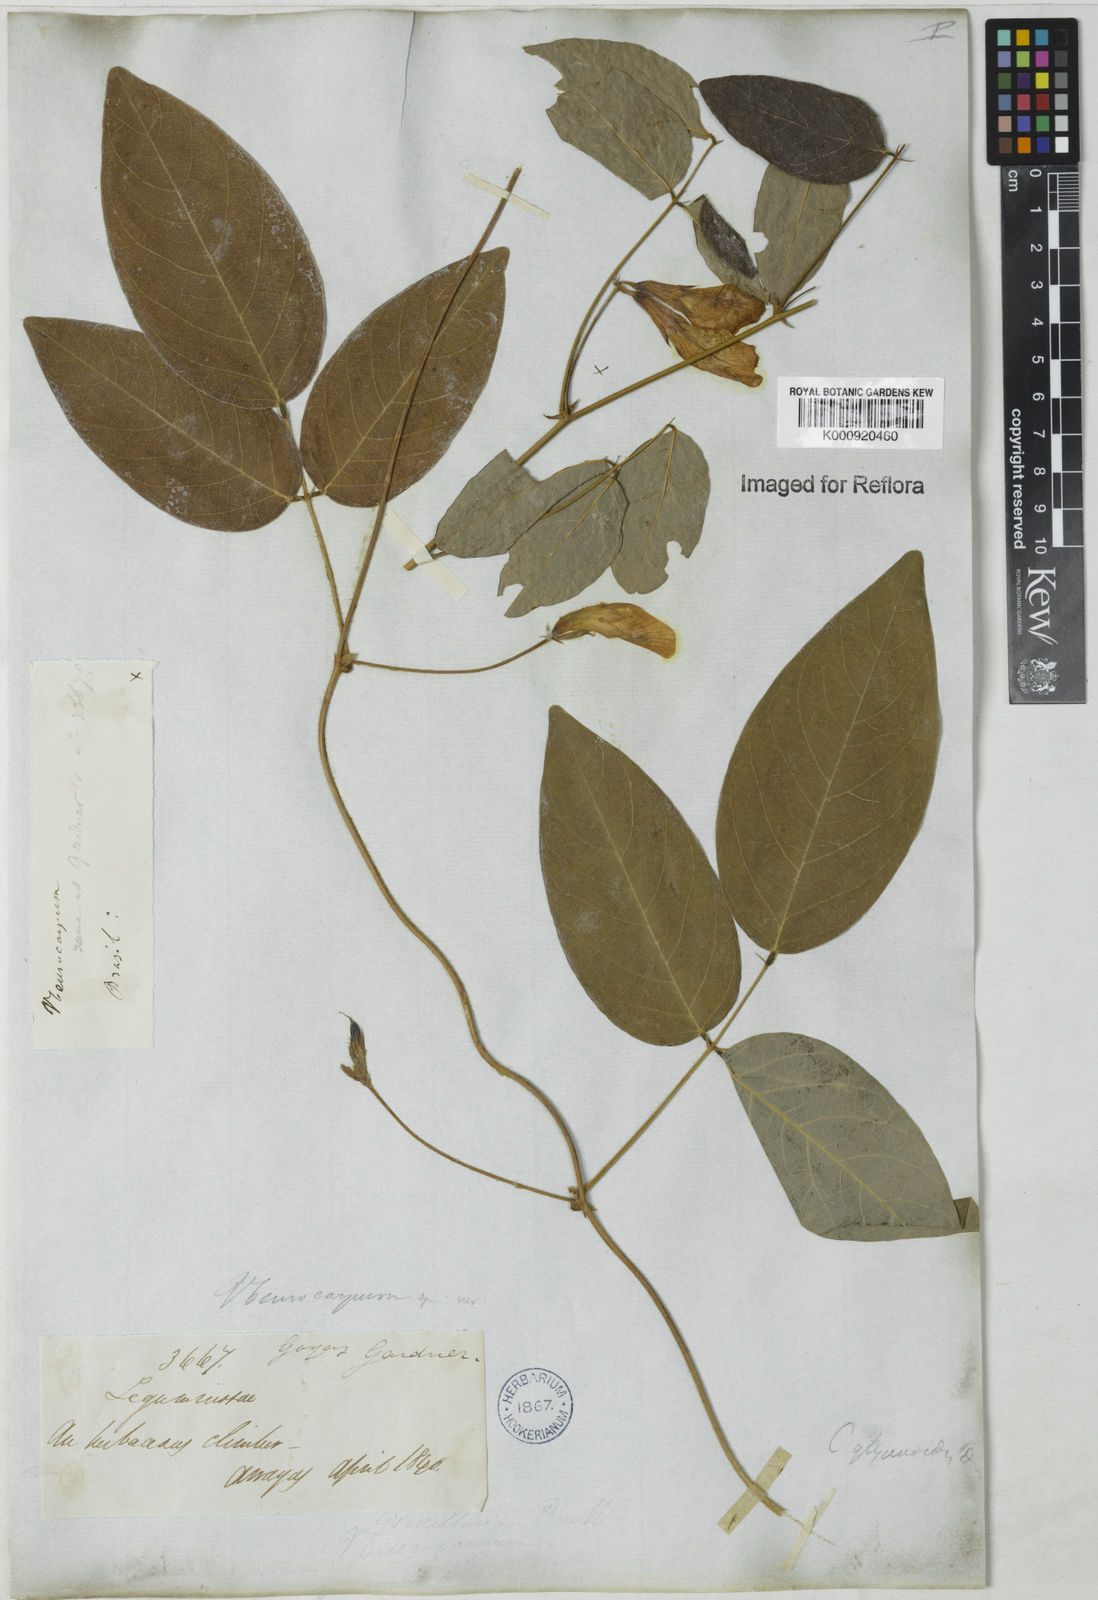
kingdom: Plantae
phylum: Tracheophyta
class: Magnoliopsida
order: Fabales
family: Fabaceae
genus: Clitoria
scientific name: Clitoria
